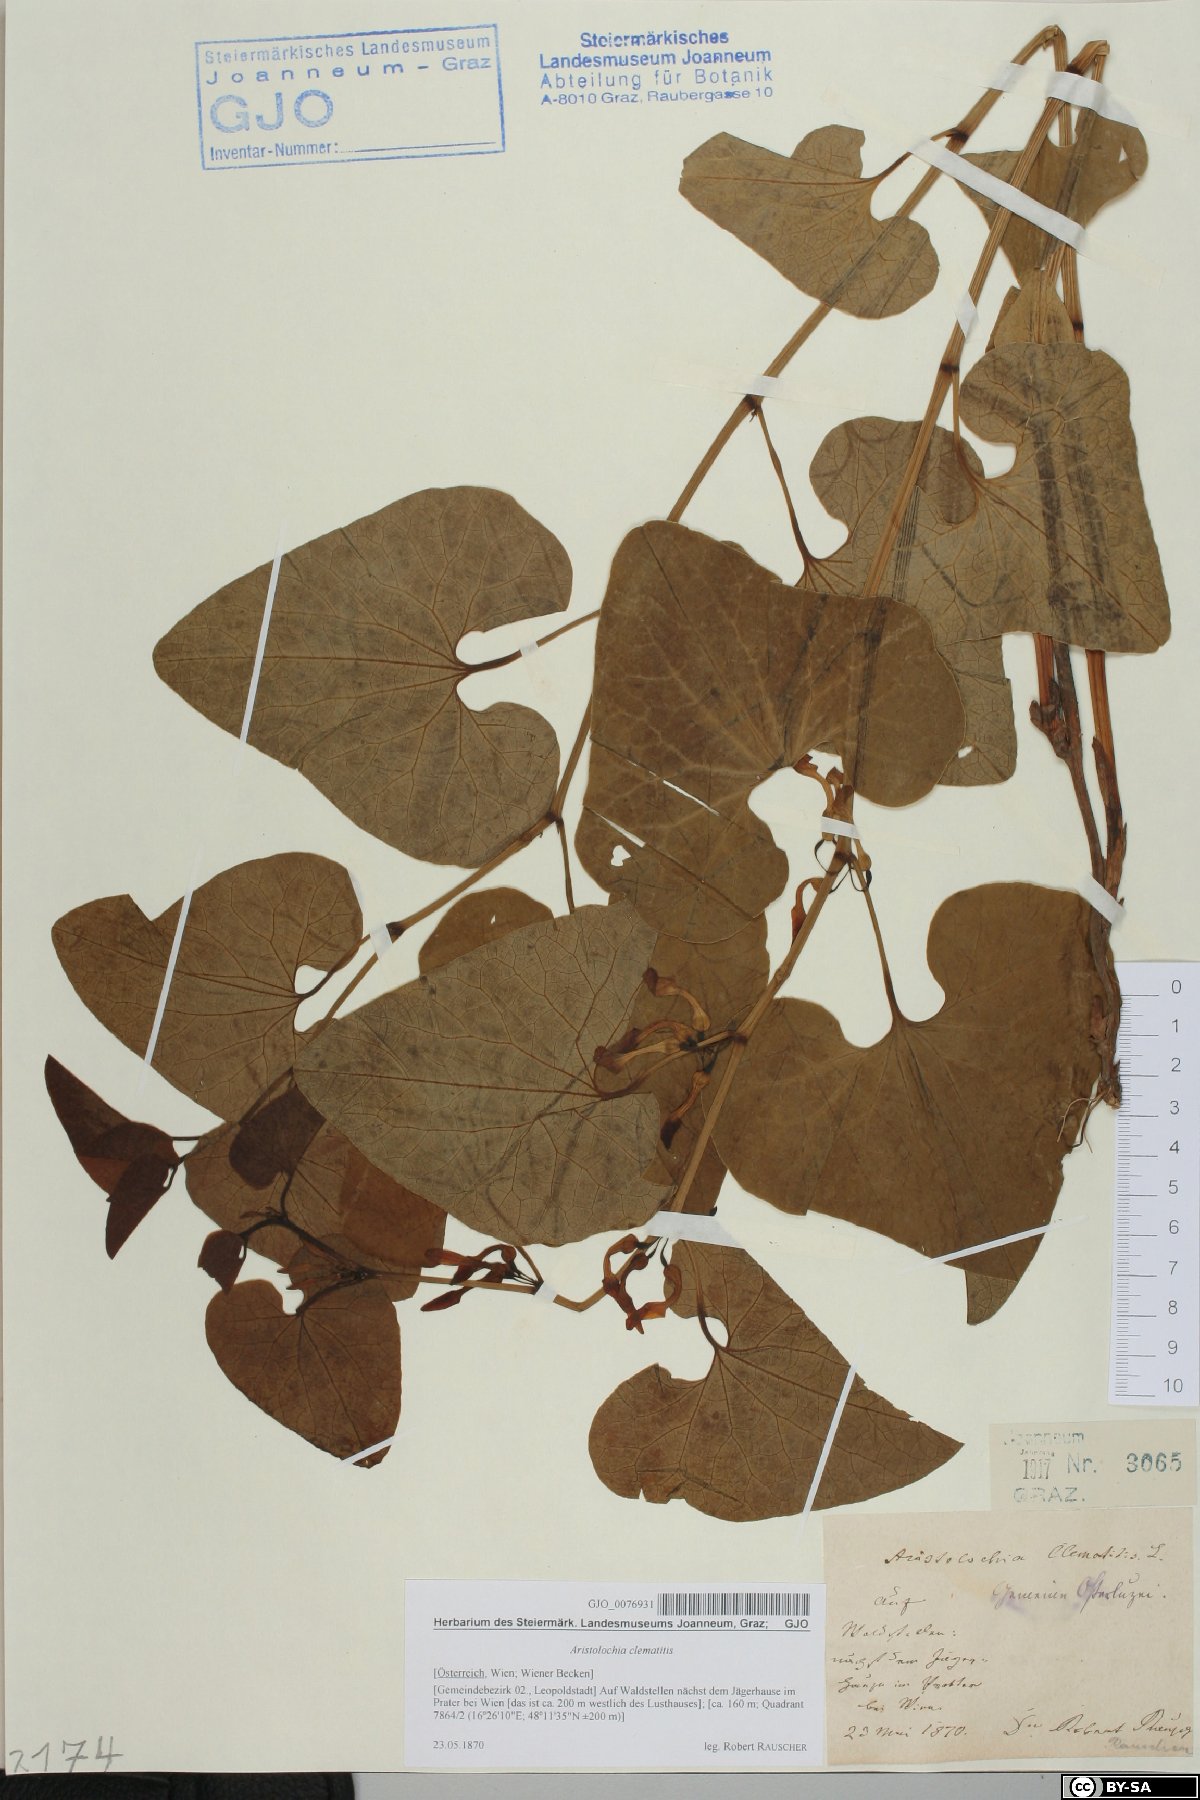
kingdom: Plantae
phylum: Tracheophyta
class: Magnoliopsida
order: Piperales
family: Aristolochiaceae
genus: Aristolochia
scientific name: Aristolochia clematitis
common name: Birthwort
